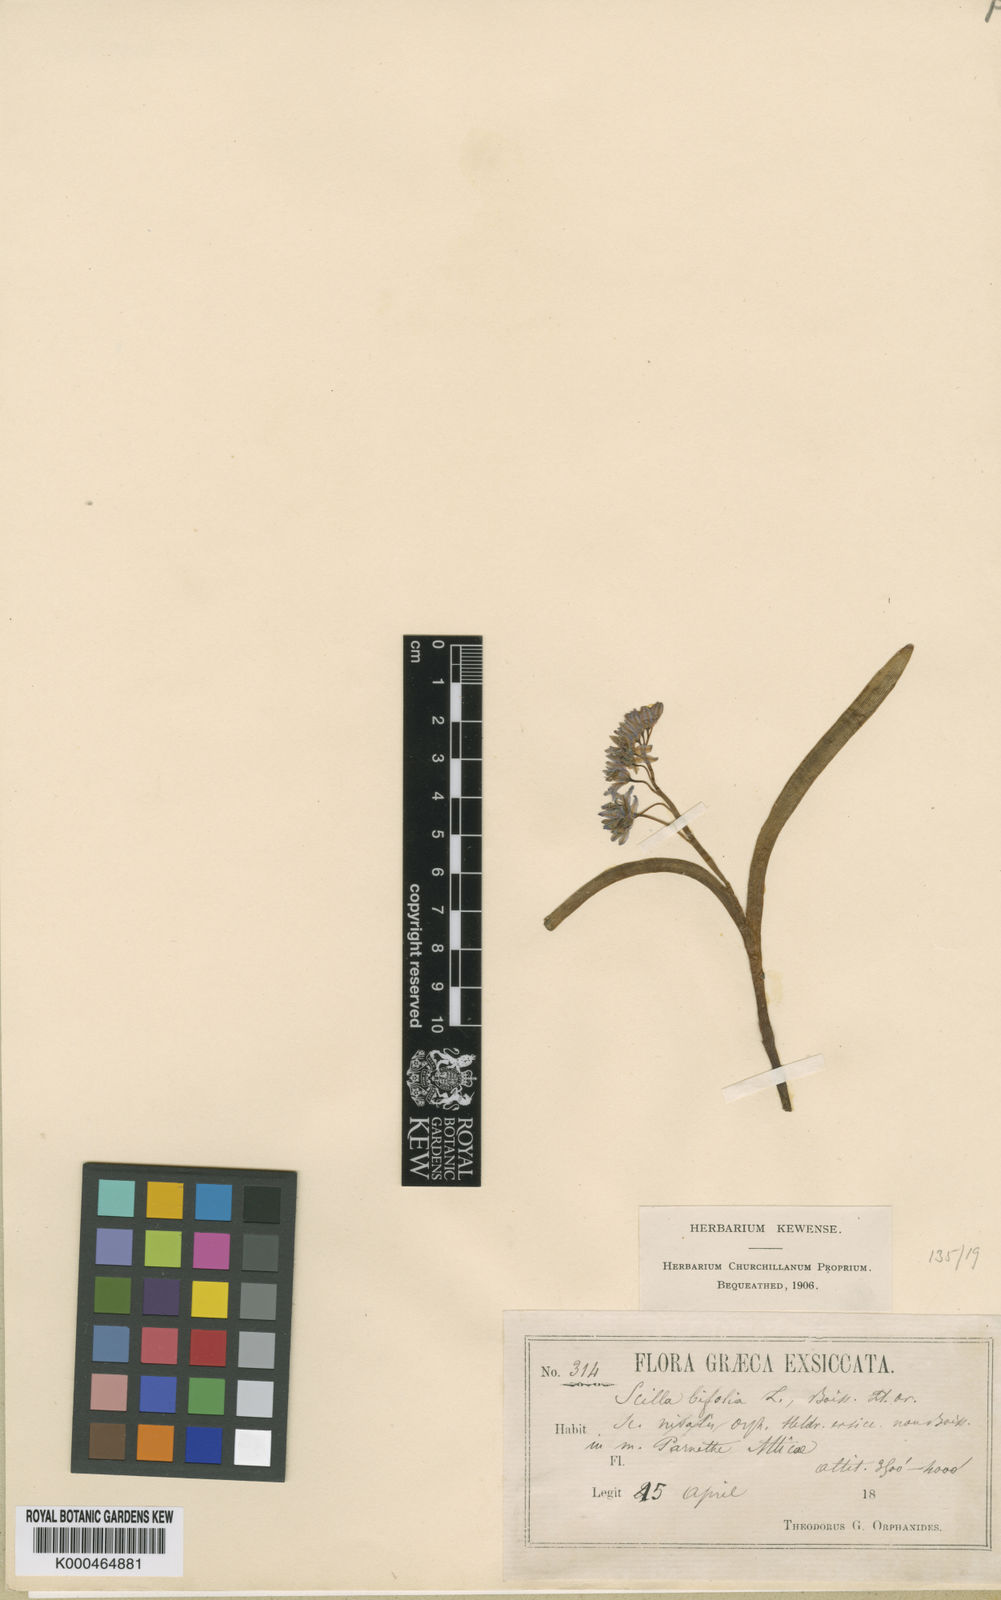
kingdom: Plantae
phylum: Tracheophyta
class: Liliopsida
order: Asparagales
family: Asparagaceae
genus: Scilla
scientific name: Scilla nivalis
